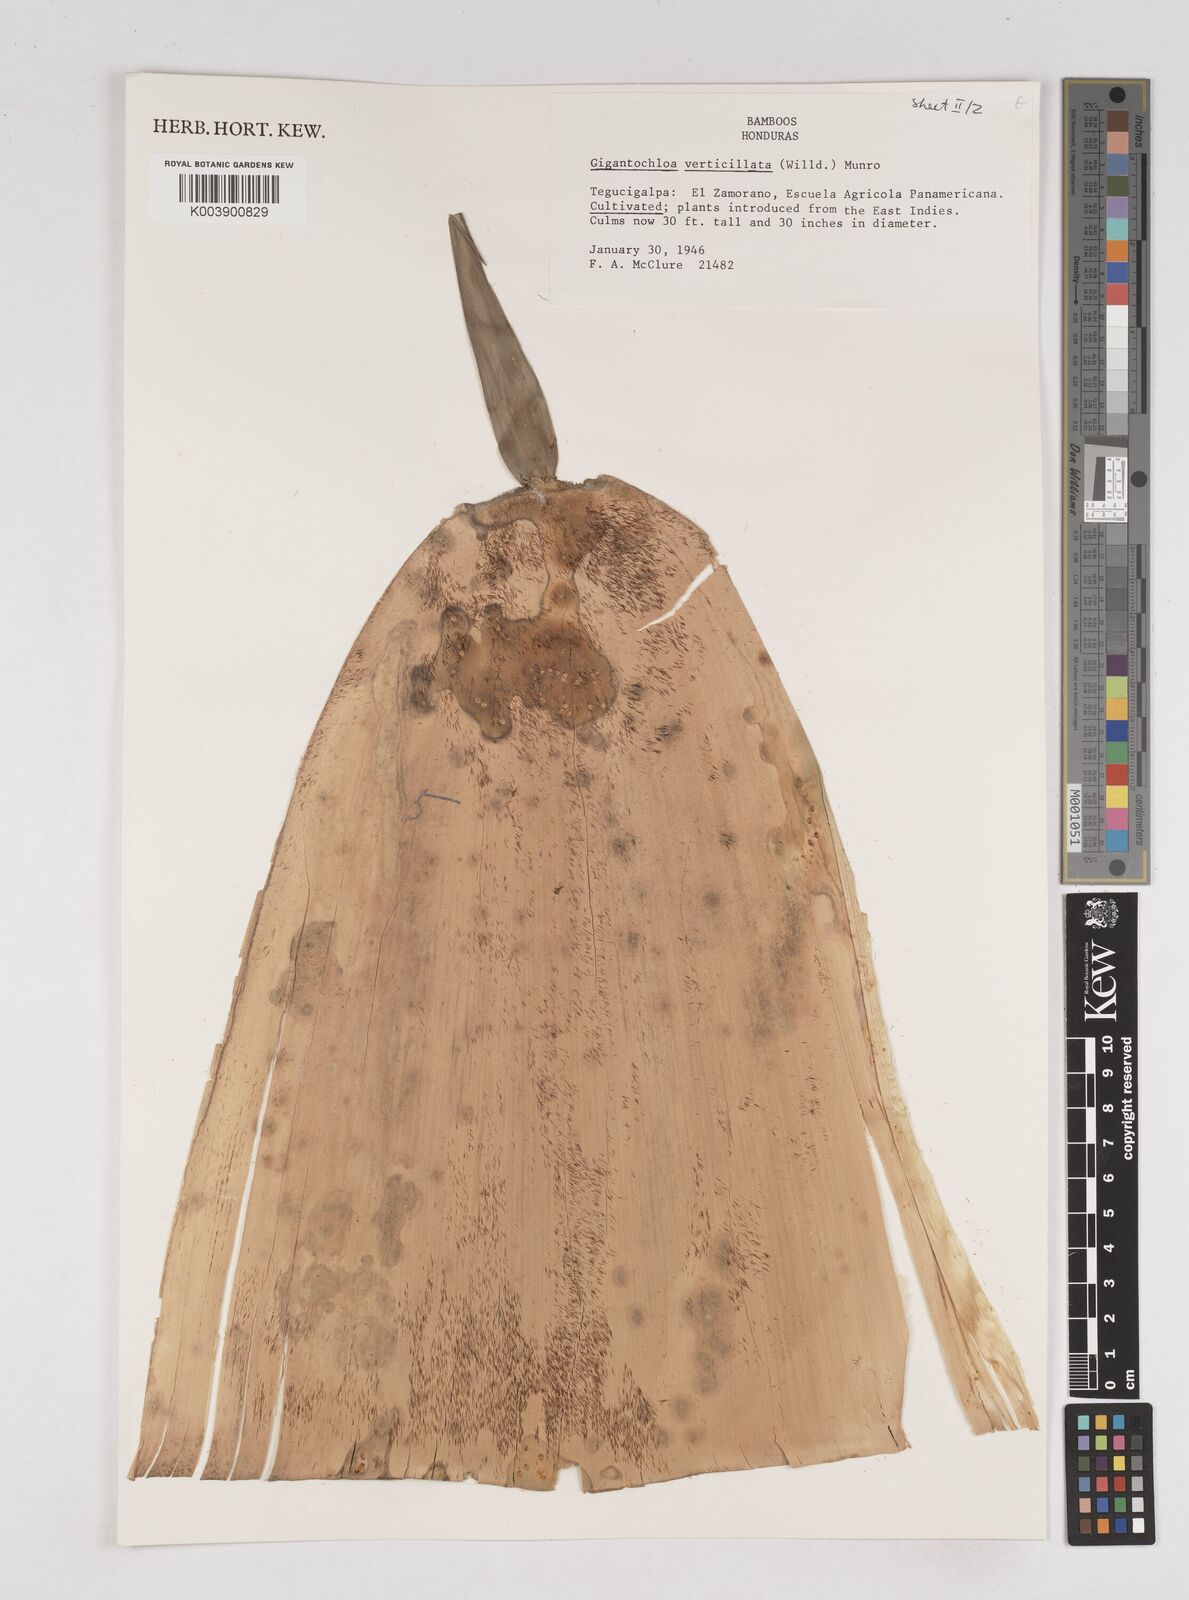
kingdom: Plantae
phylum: Tracheophyta
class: Liliopsida
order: Poales
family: Poaceae
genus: Gigantochloa
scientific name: Gigantochloa verticillata
